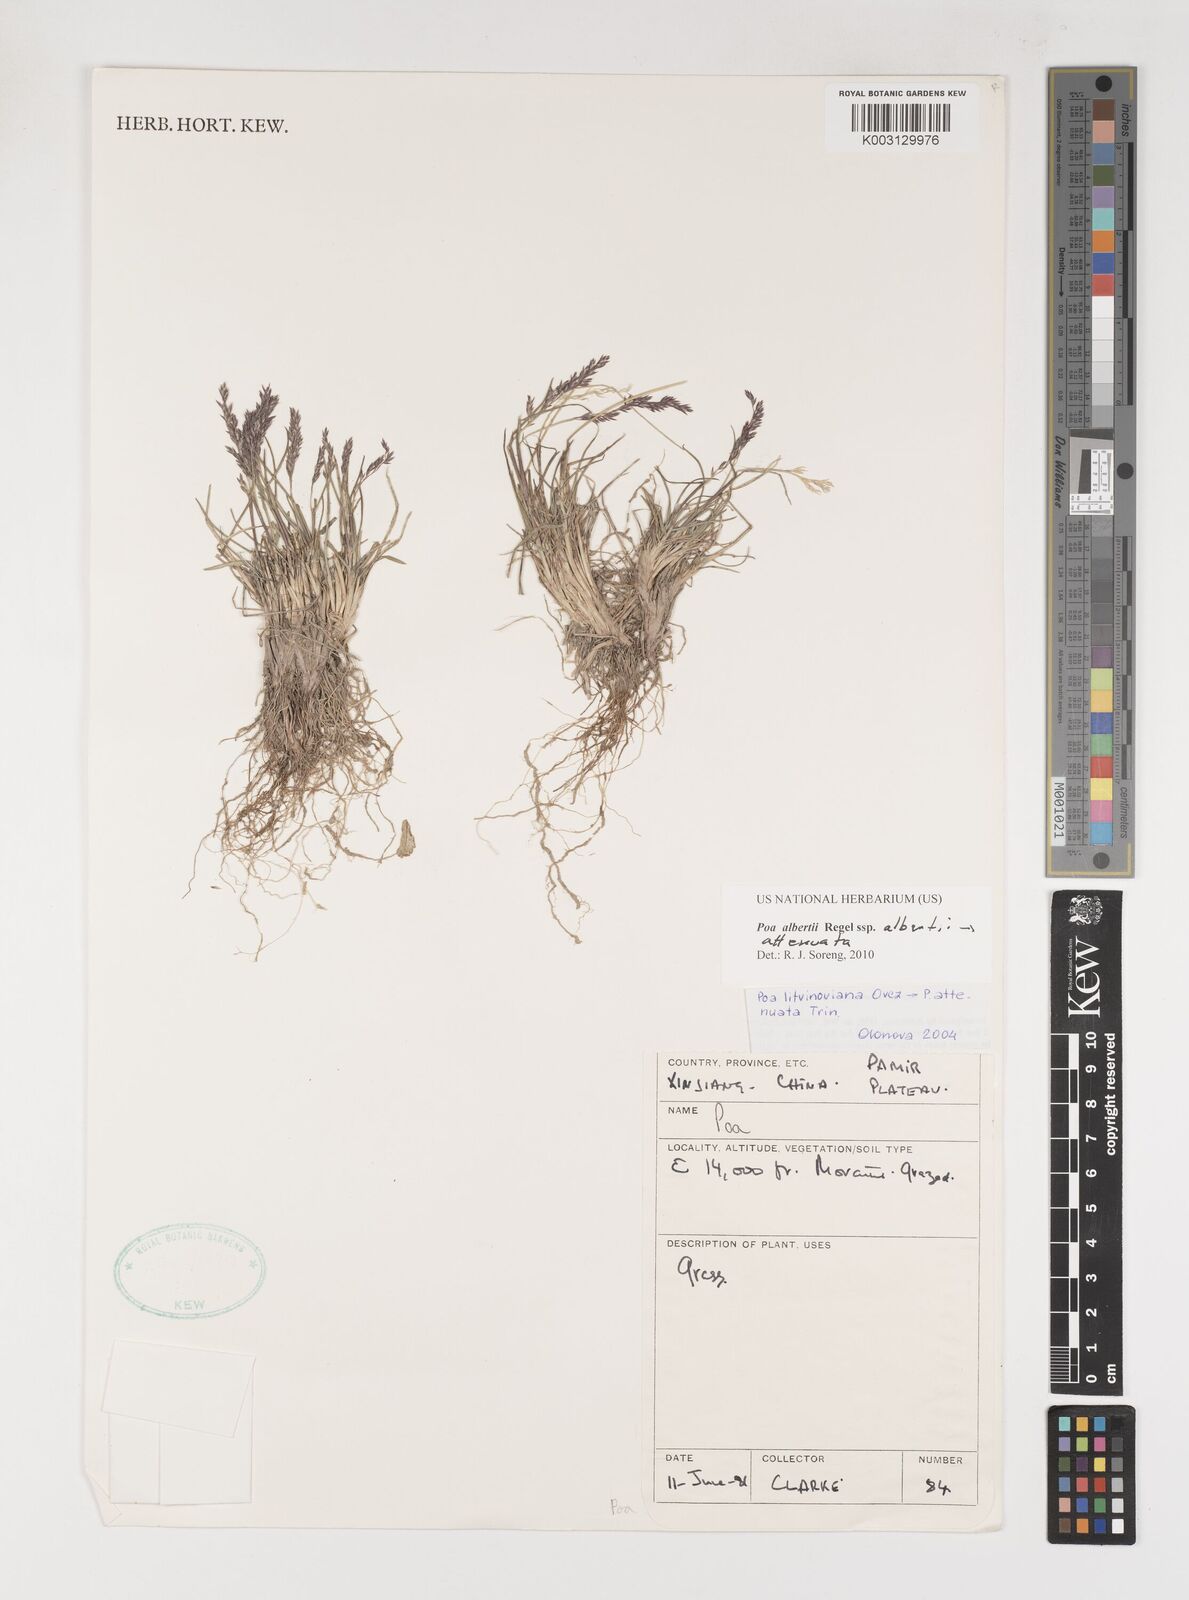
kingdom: Plantae
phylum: Tracheophyta
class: Liliopsida
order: Poales
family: Poaceae
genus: Poa
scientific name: Poa attenuata
